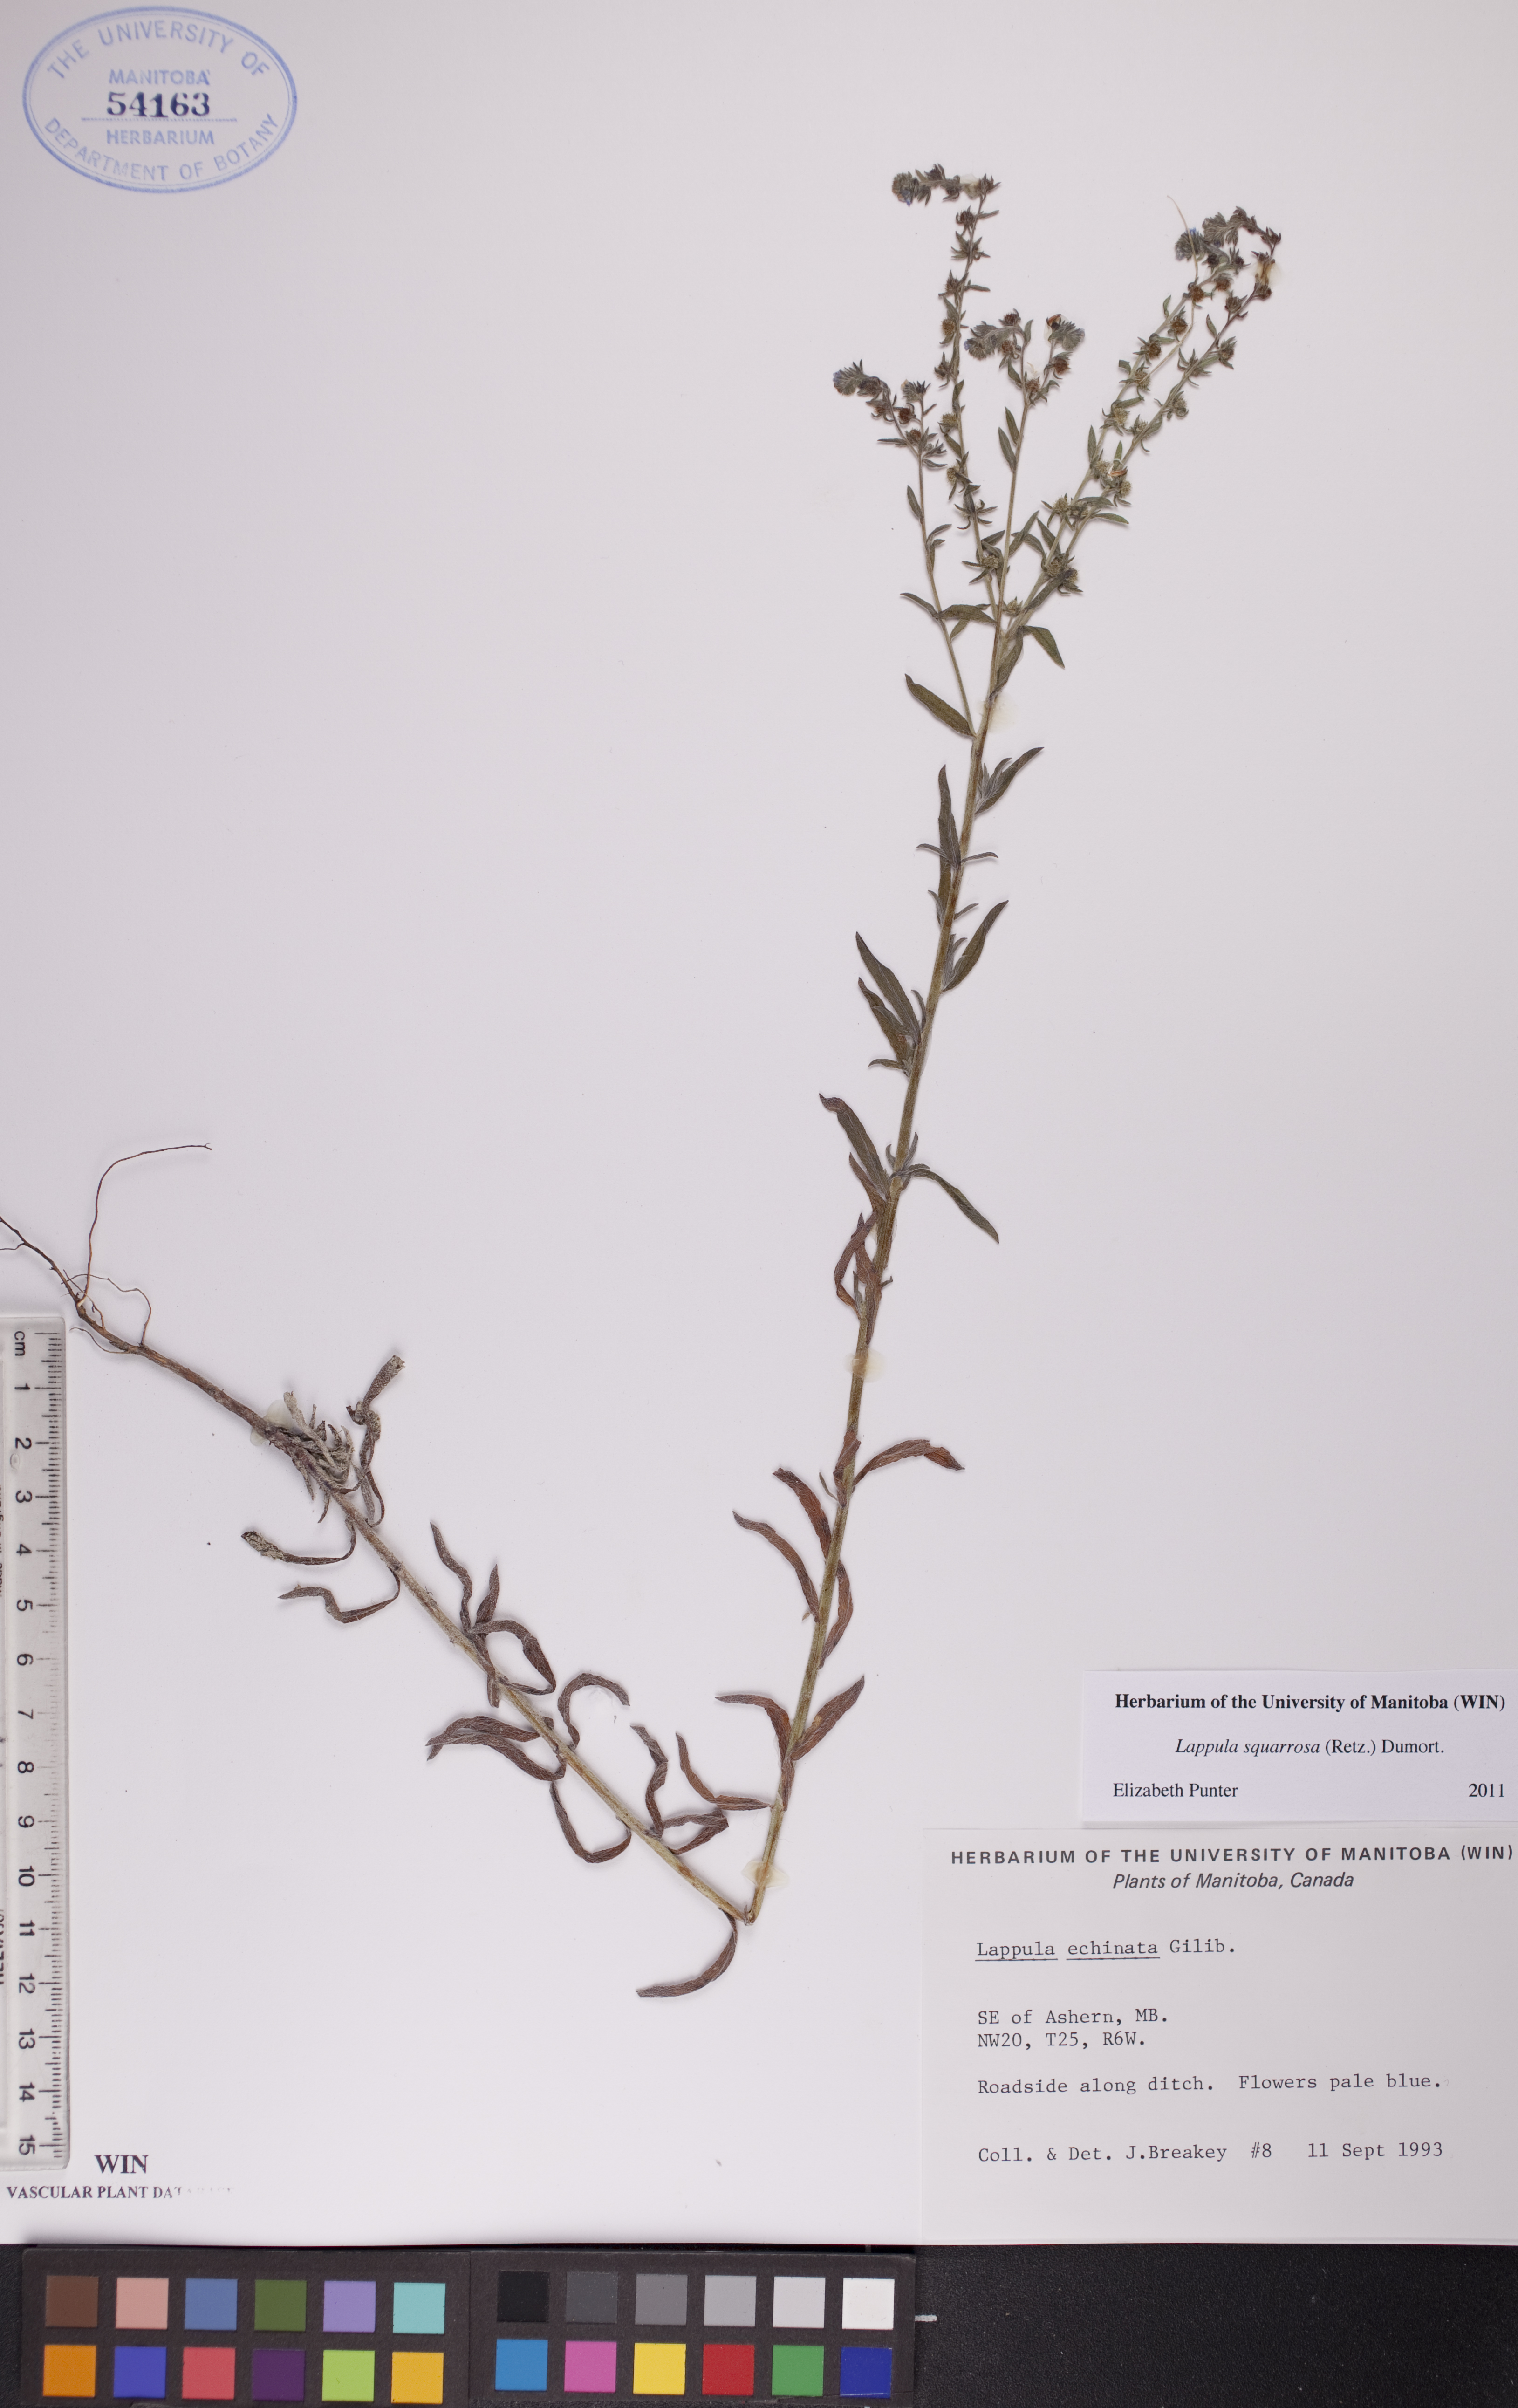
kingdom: Plantae
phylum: Tracheophyta
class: Magnoliopsida
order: Boraginales
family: Boraginaceae
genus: Lappula
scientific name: Lappula squarrosa
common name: European stickseed
